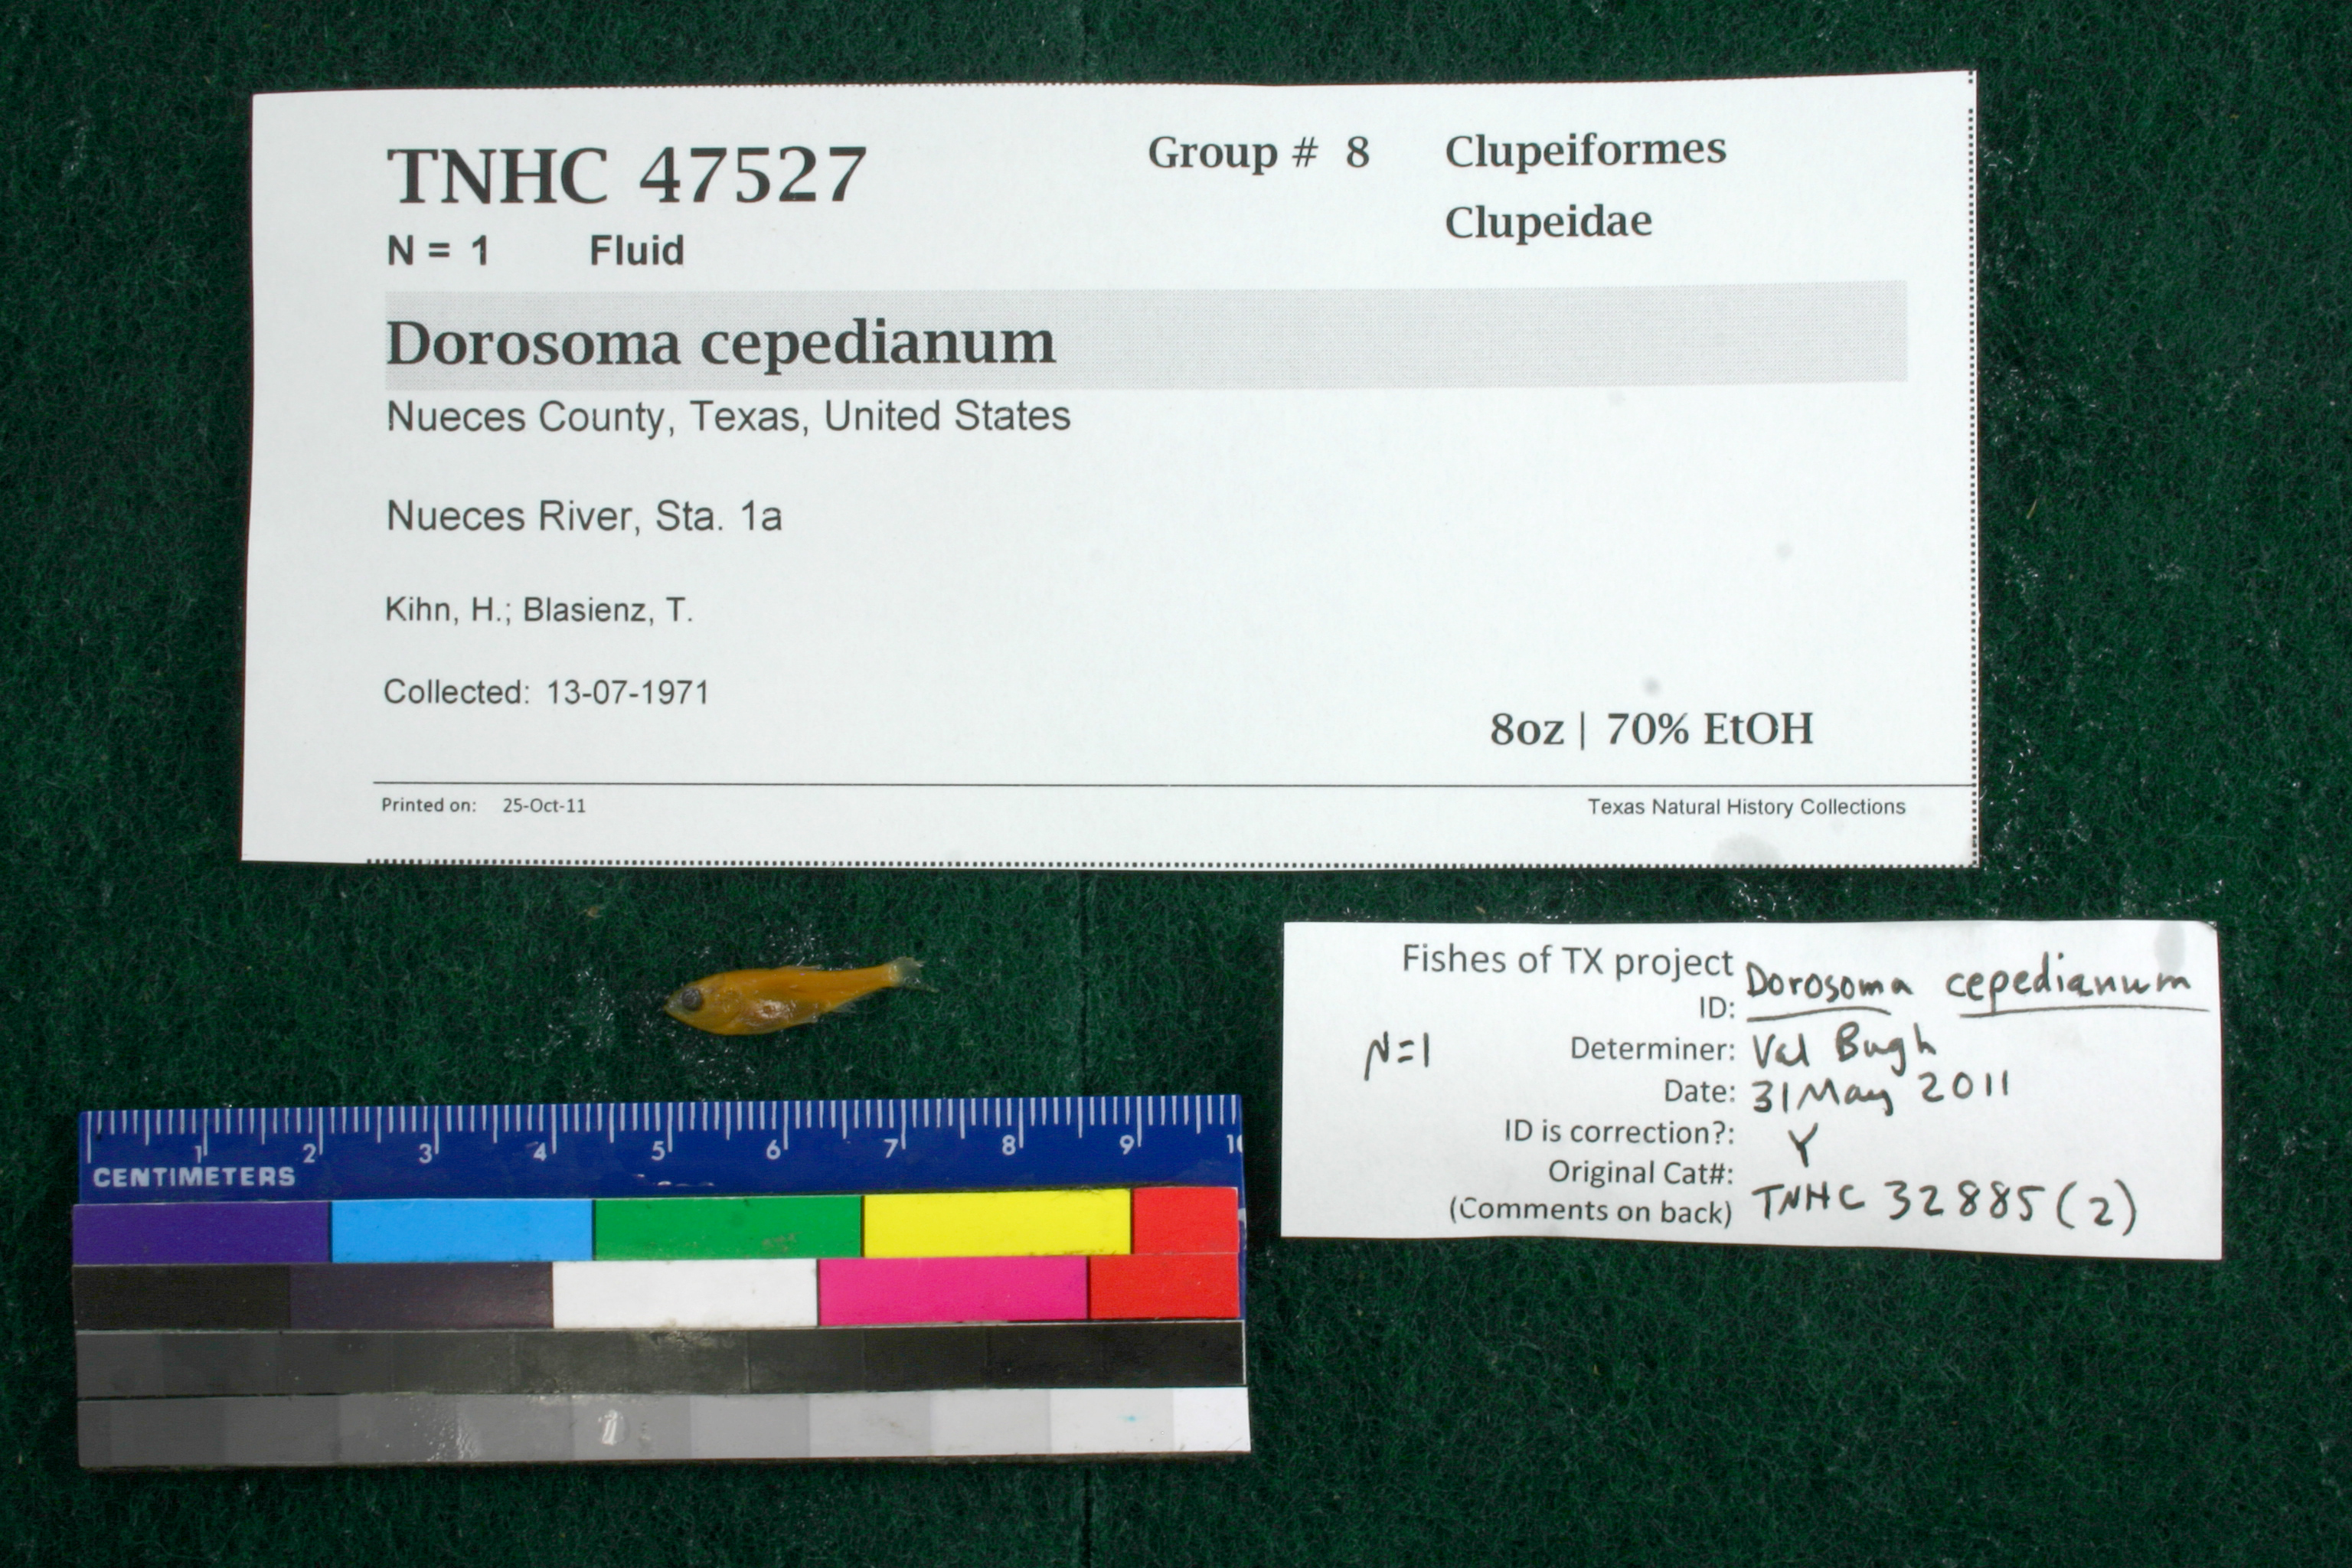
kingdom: Animalia
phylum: Chordata
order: Clupeiformes
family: Clupeidae
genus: Dorosoma
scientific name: Dorosoma cepedianum
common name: Gizzard shad
